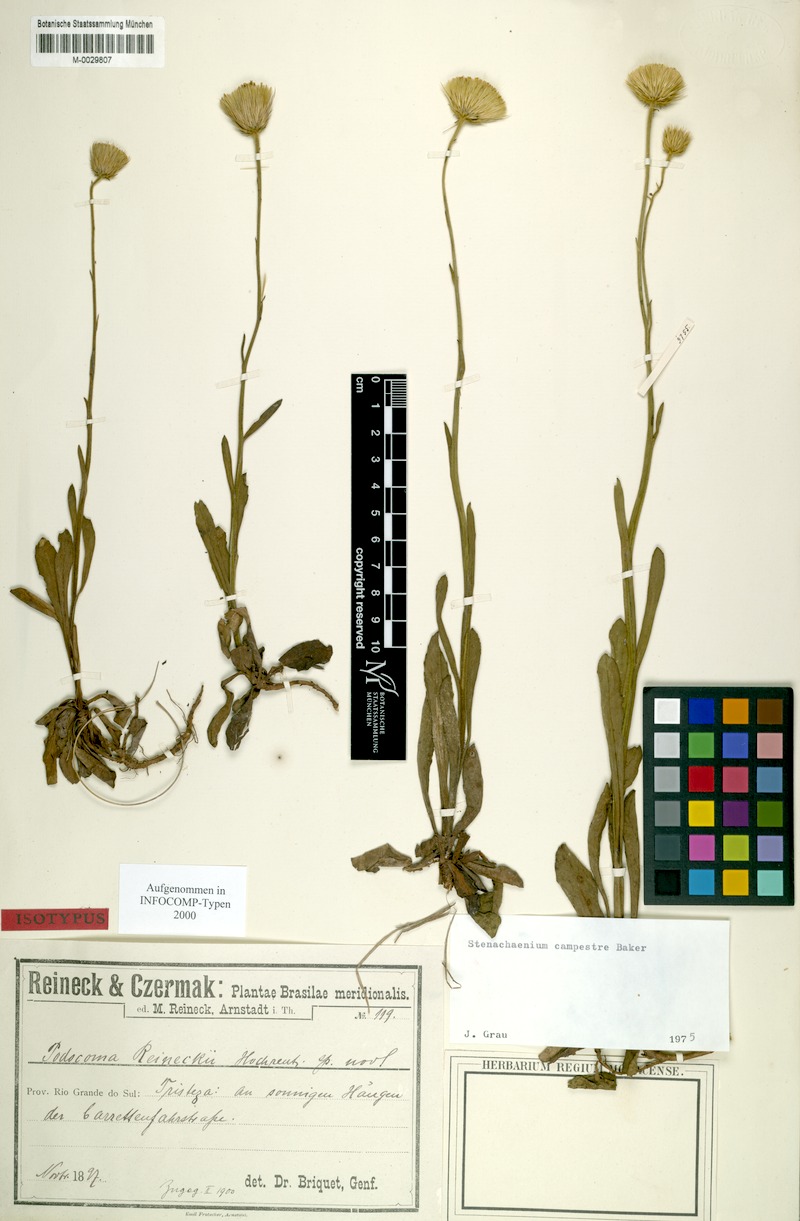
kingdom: Plantae
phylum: Tracheophyta
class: Magnoliopsida
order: Asterales
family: Asteraceae
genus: Stenachaenium
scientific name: Stenachaenium campestre
